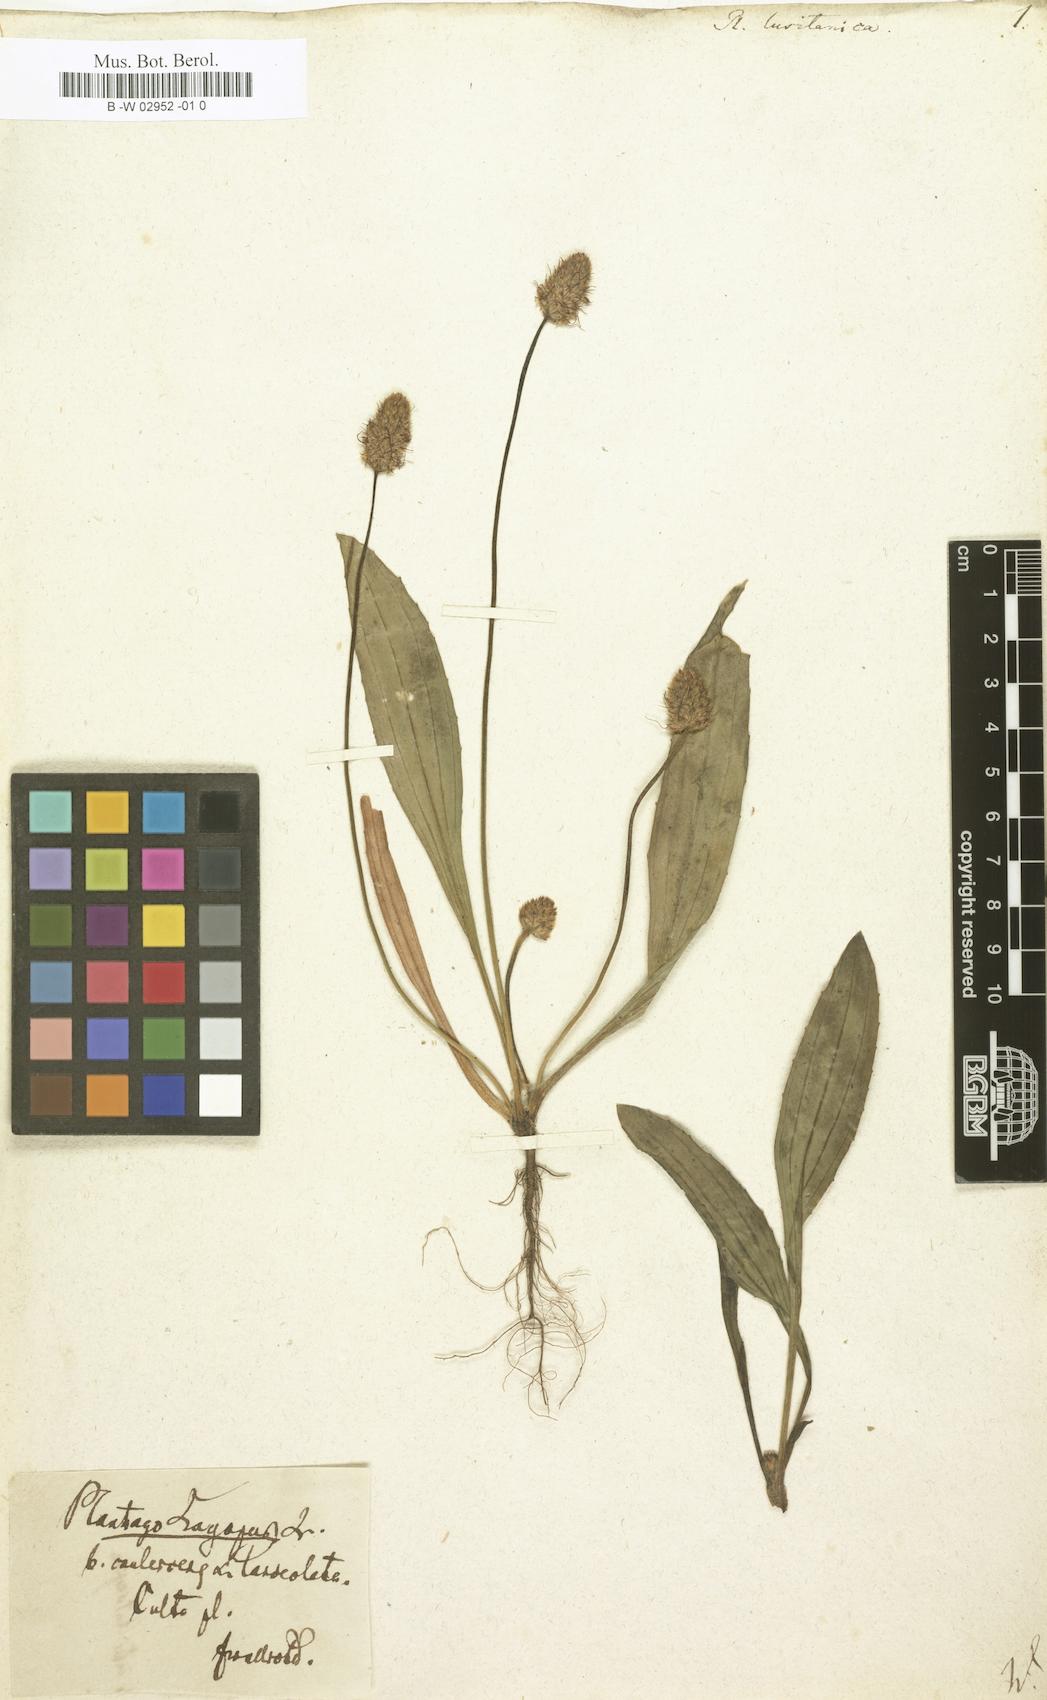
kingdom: Plantae
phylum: Tracheophyta
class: Magnoliopsida
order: Lamiales
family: Plantaginaceae
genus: Plantago
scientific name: Plantago lagopus
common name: Hare-foot plantain
